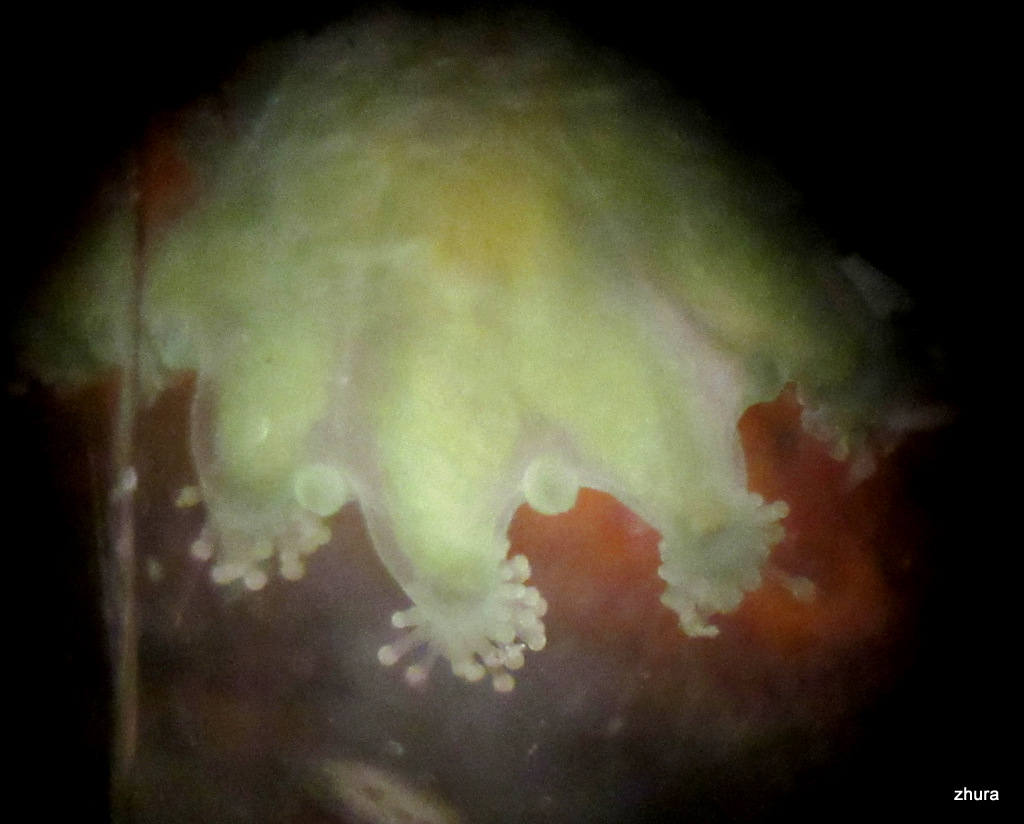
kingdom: Animalia
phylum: Cnidaria
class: Staurozoa
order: Stauromedusae
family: Haliclystidae
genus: Haliclystus
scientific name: Haliclystus auricula
